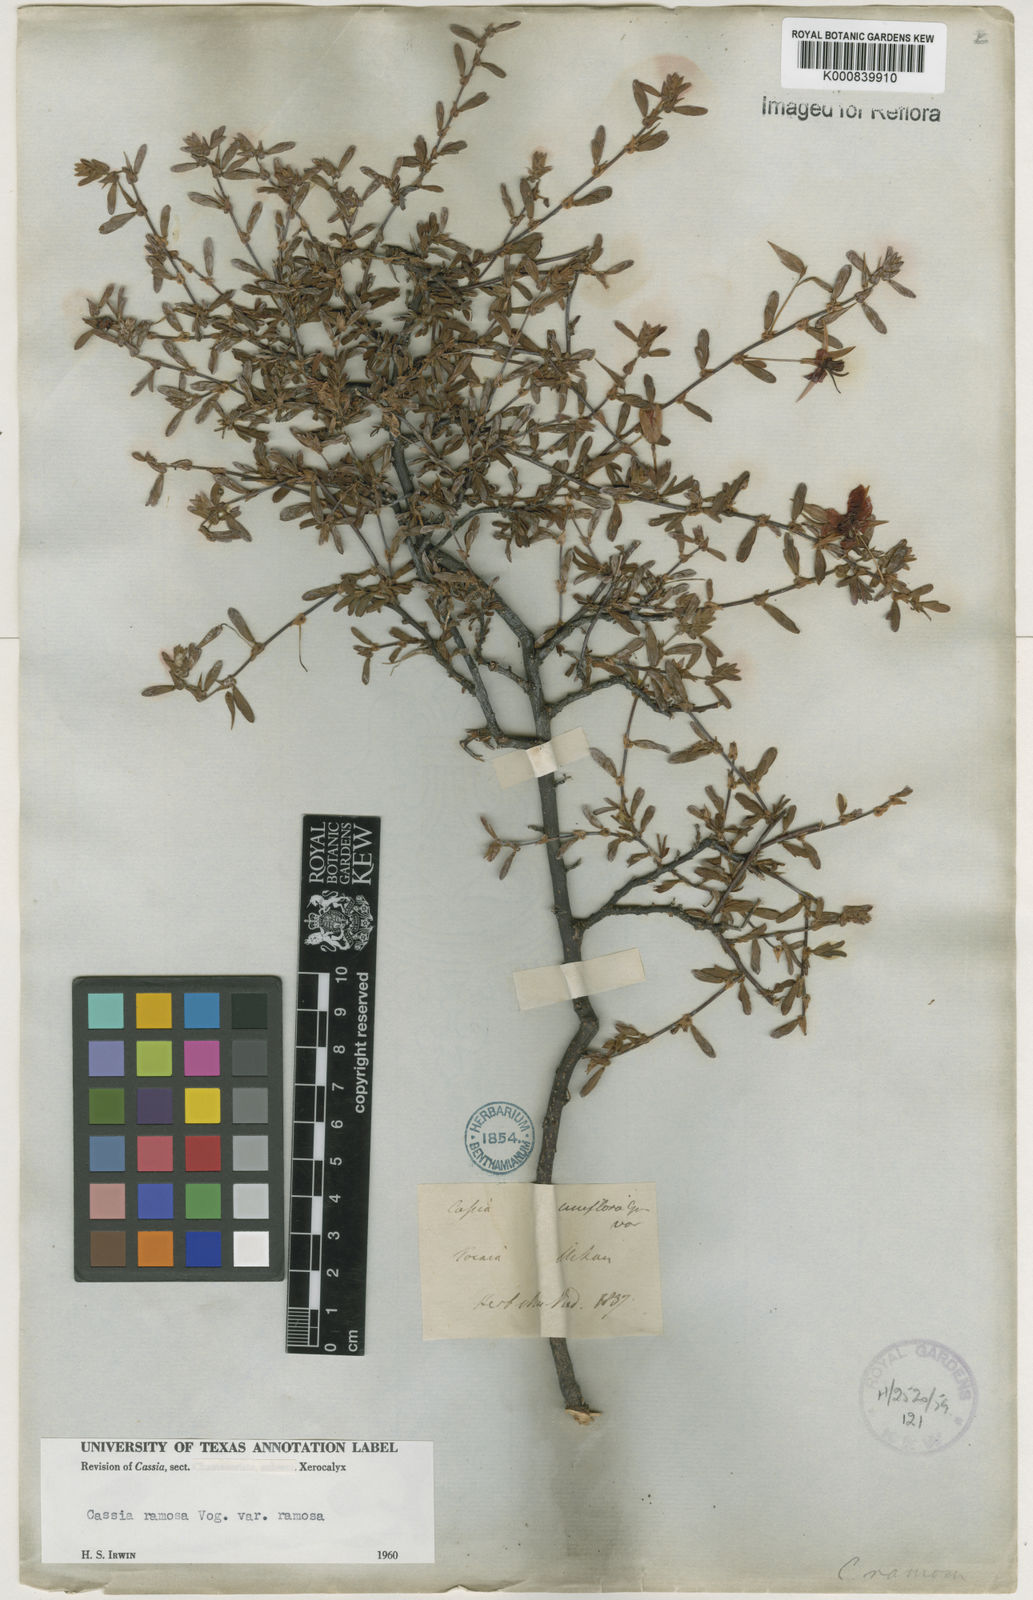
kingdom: Plantae
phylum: Tracheophyta
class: Magnoliopsida
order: Fabales
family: Fabaceae
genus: Chamaecrista
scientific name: Chamaecrista ramosa
